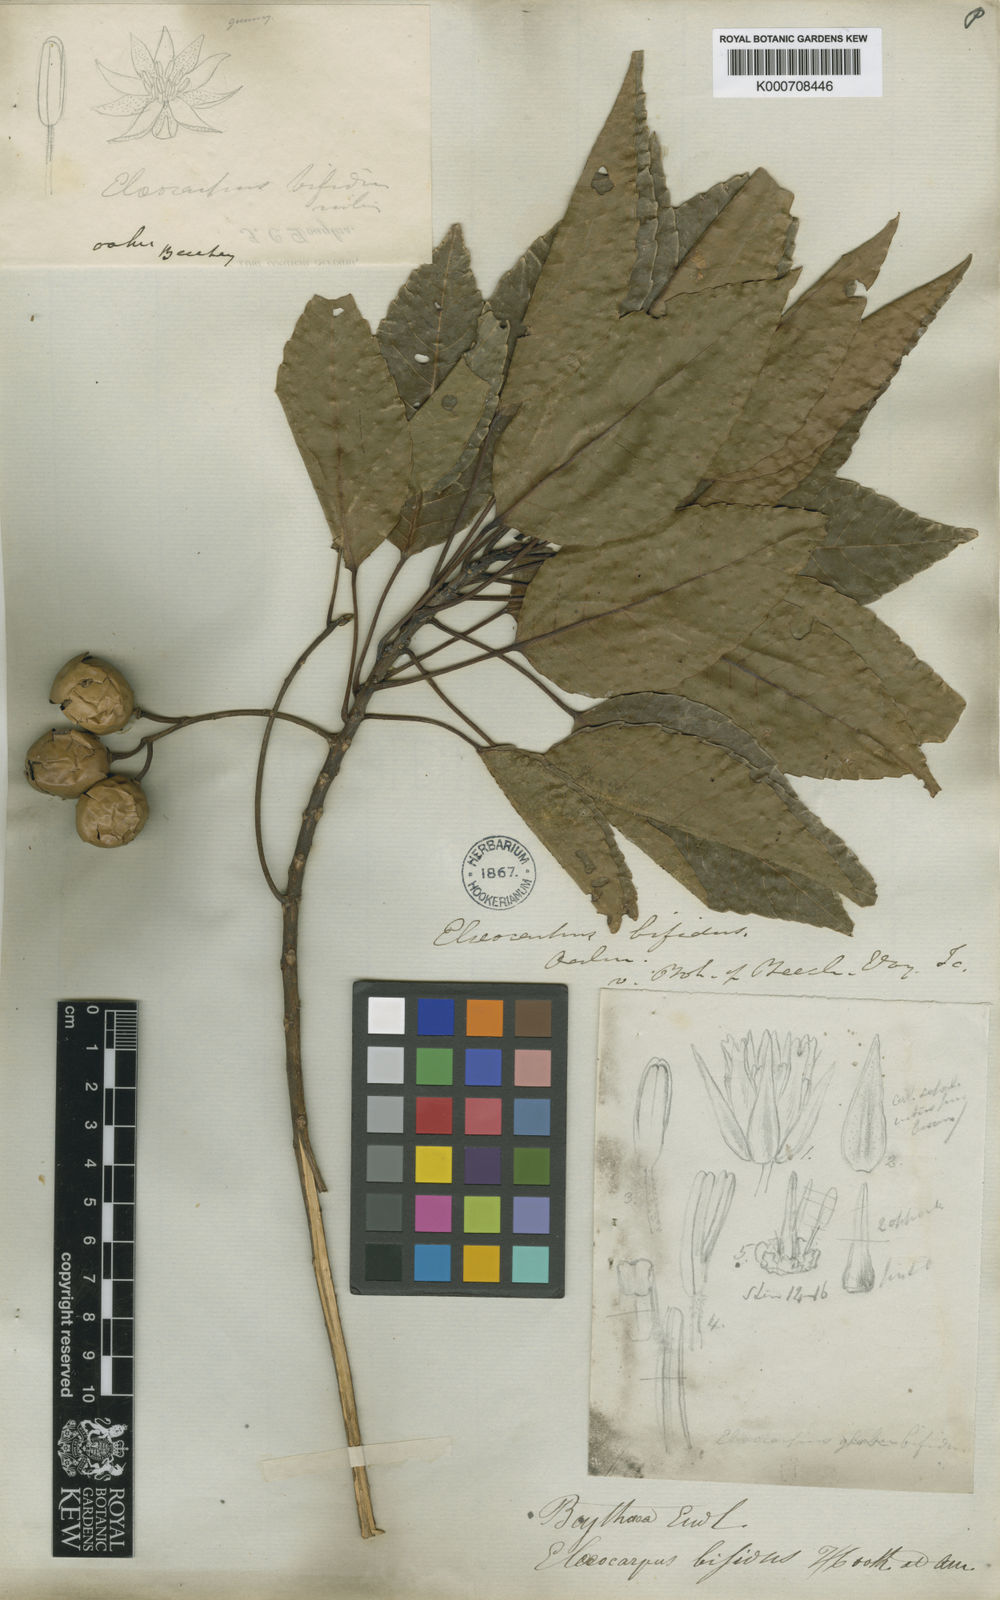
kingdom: Plantae
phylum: Tracheophyta
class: Magnoliopsida
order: Oxalidales
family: Elaeocarpaceae
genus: Elaeocarpus
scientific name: Elaeocarpus bifidus
